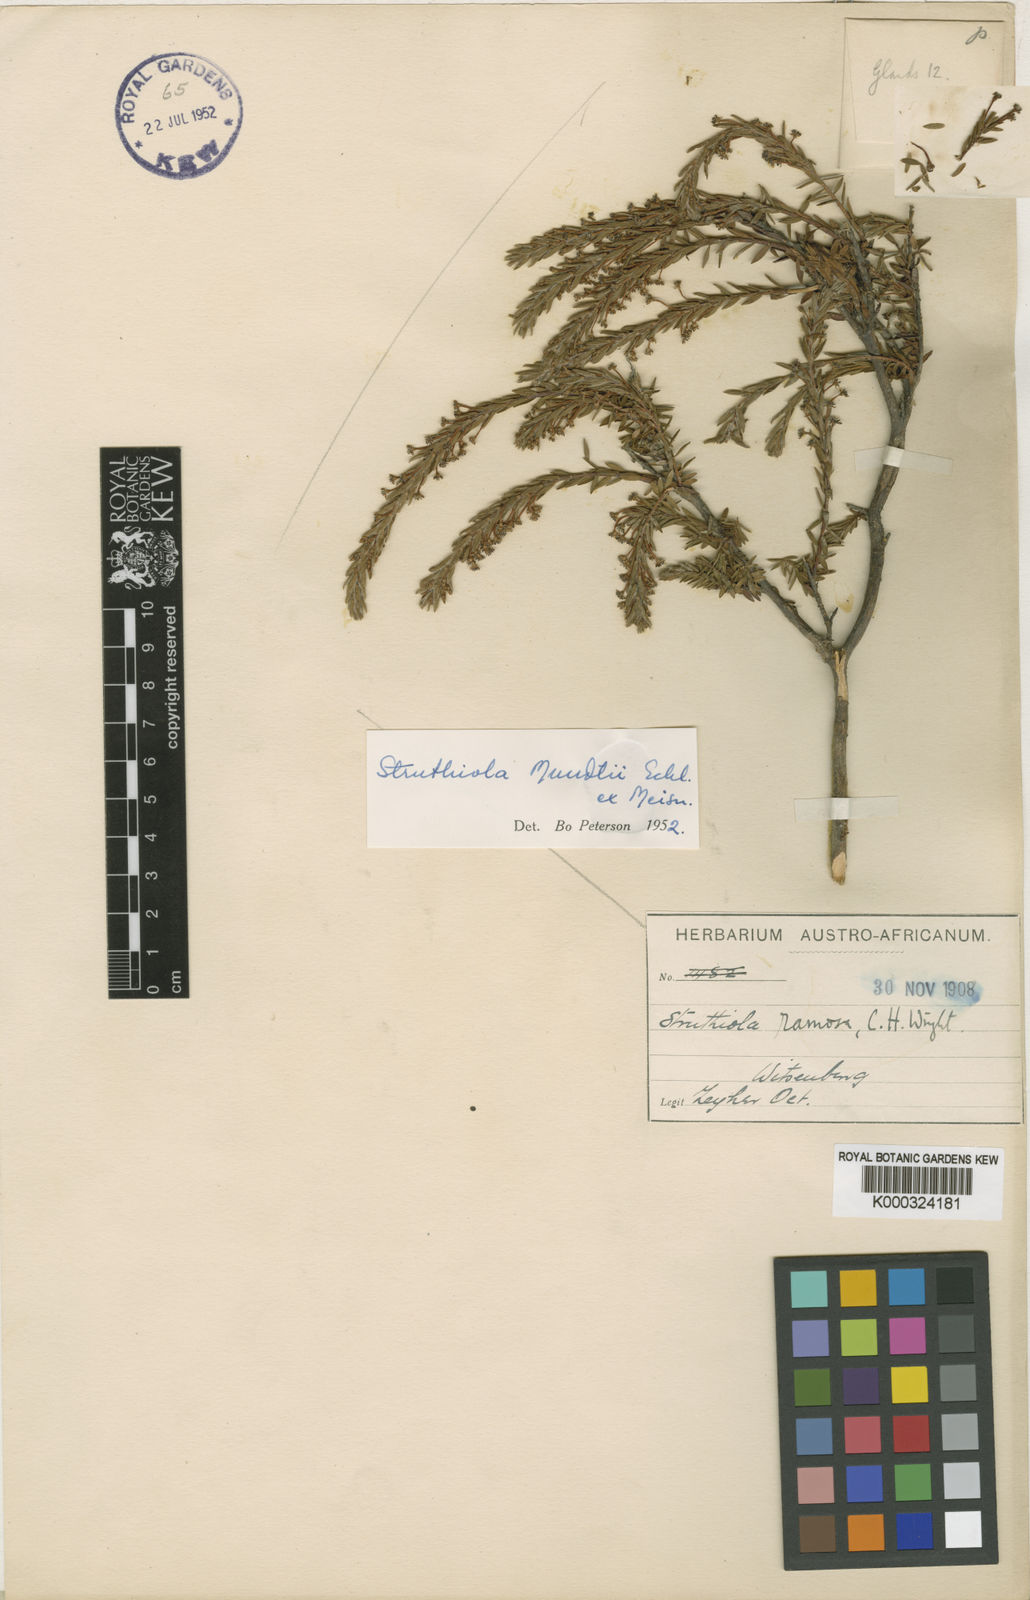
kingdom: Plantae
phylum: Tracheophyta
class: Magnoliopsida
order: Malvales
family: Thymelaeaceae
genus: Struthiola
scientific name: Struthiola mundtii
